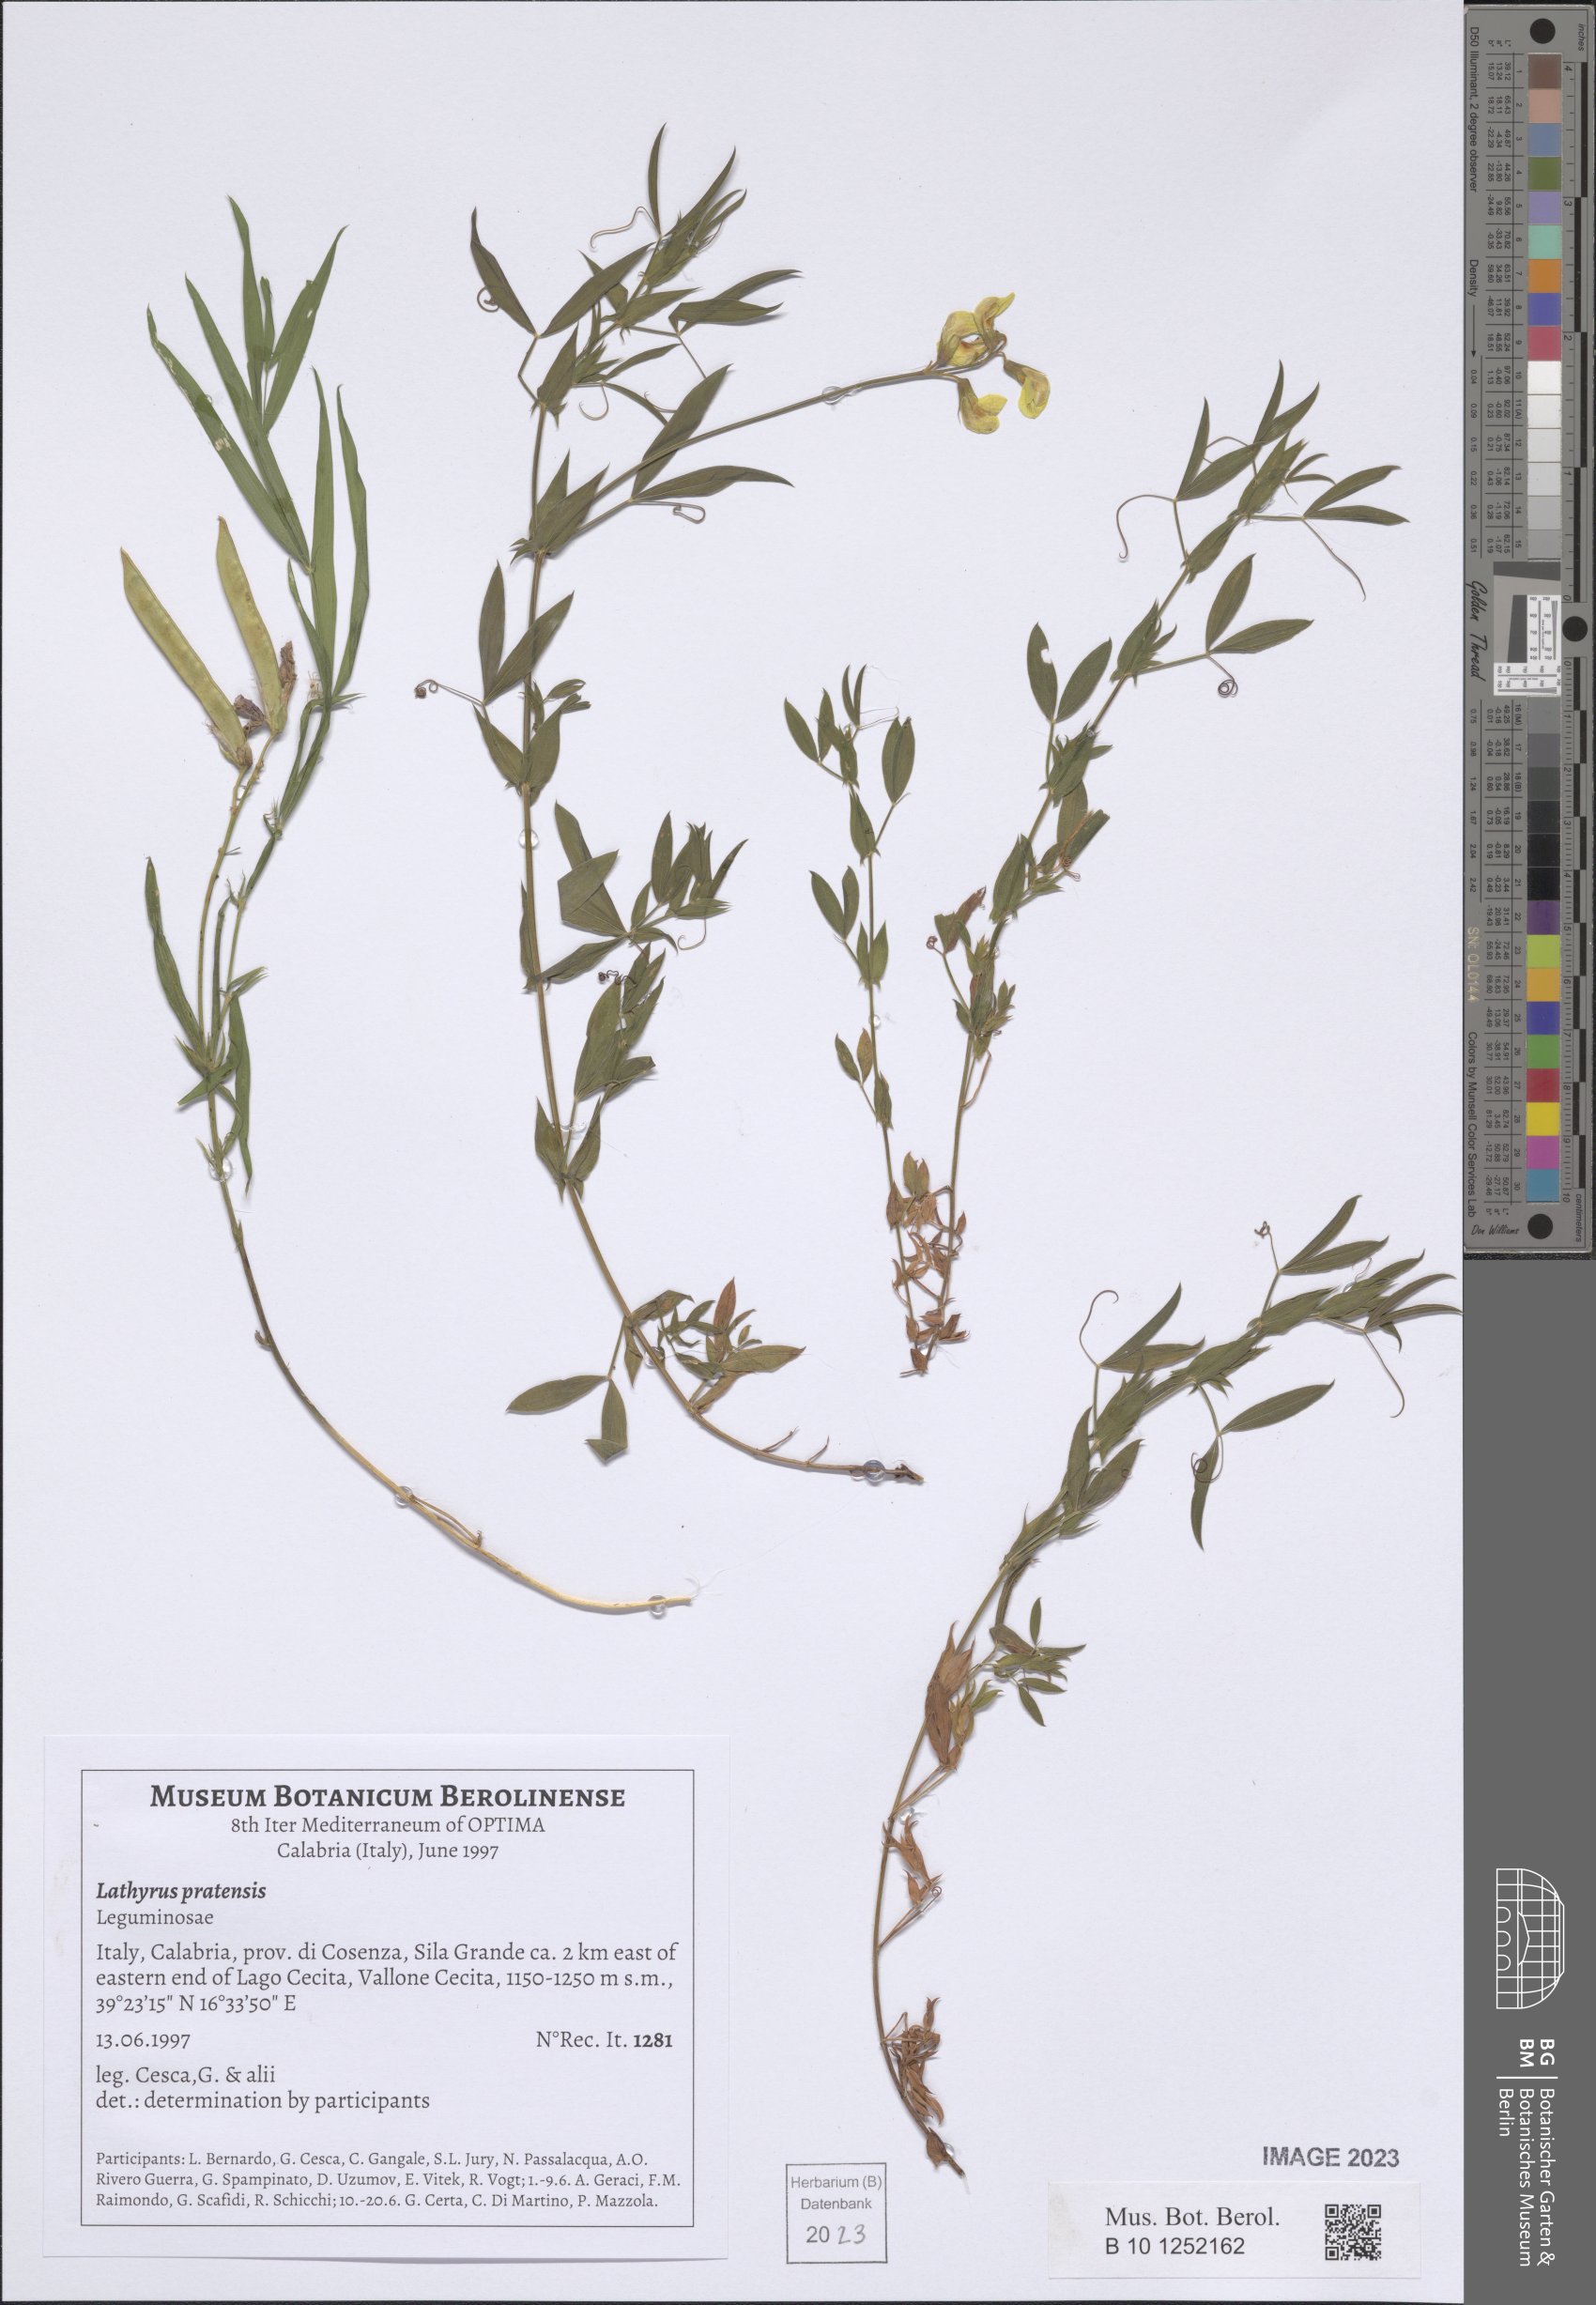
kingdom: Plantae
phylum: Tracheophyta
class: Magnoliopsida
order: Fabales
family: Fabaceae
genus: Lathyrus
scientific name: Lathyrus pratensis
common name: Meadow vetchling
